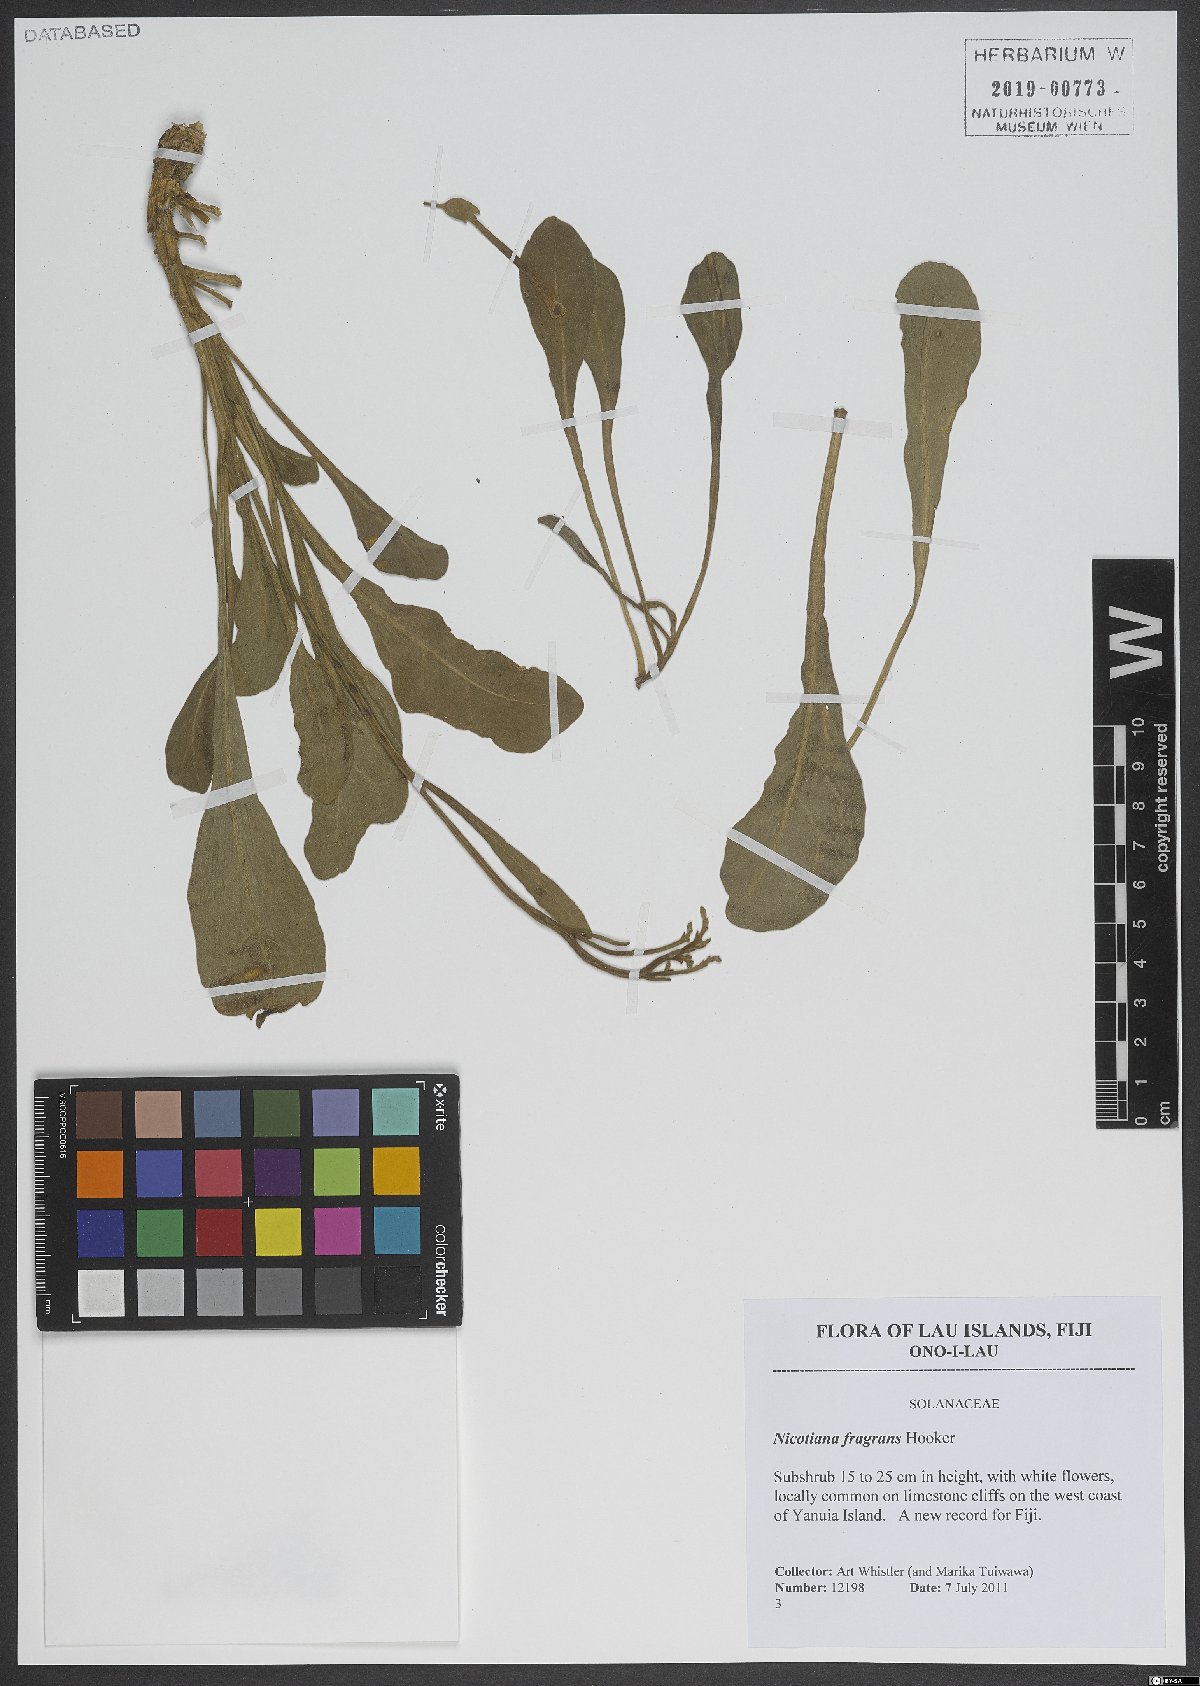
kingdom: Plantae
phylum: Tracheophyta
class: Magnoliopsida
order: Solanales
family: Solanaceae
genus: Nicotiana
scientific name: Nicotiana fragrans
